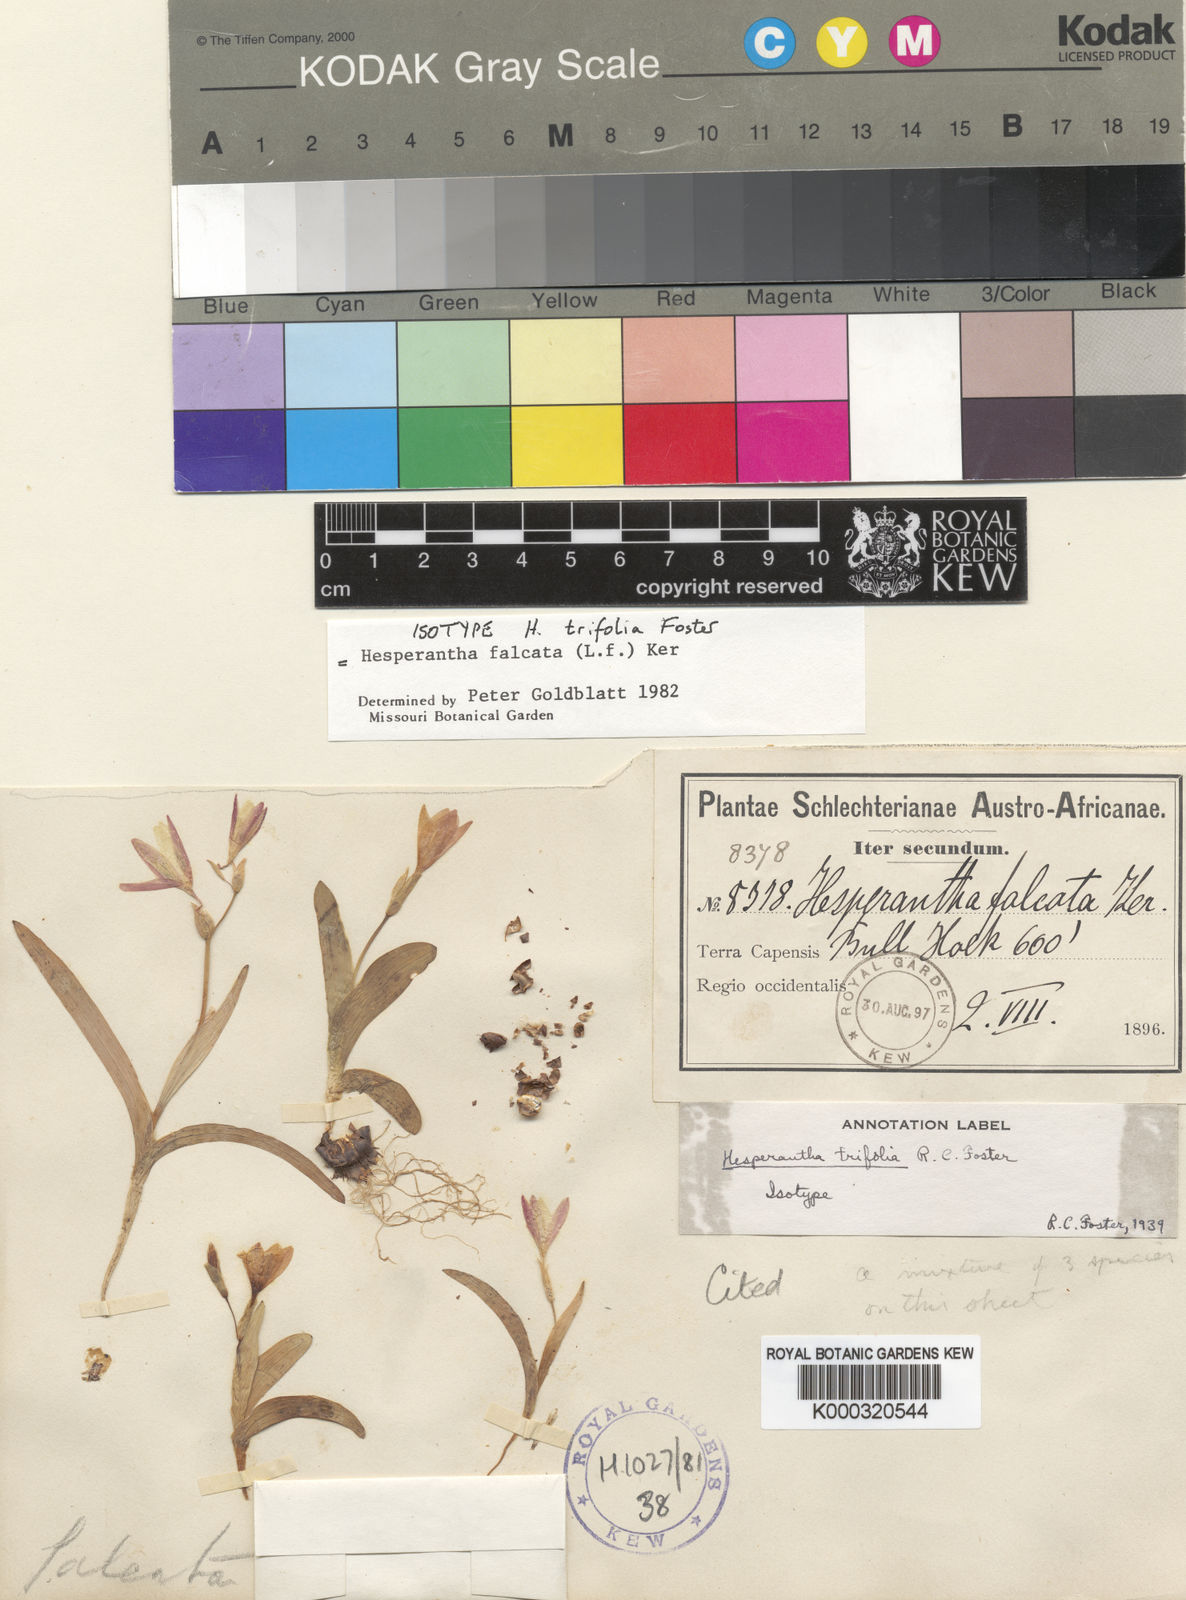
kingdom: Plantae
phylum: Tracheophyta
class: Liliopsida
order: Asparagales
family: Iridaceae
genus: Hesperantha
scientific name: Hesperantha falcata
